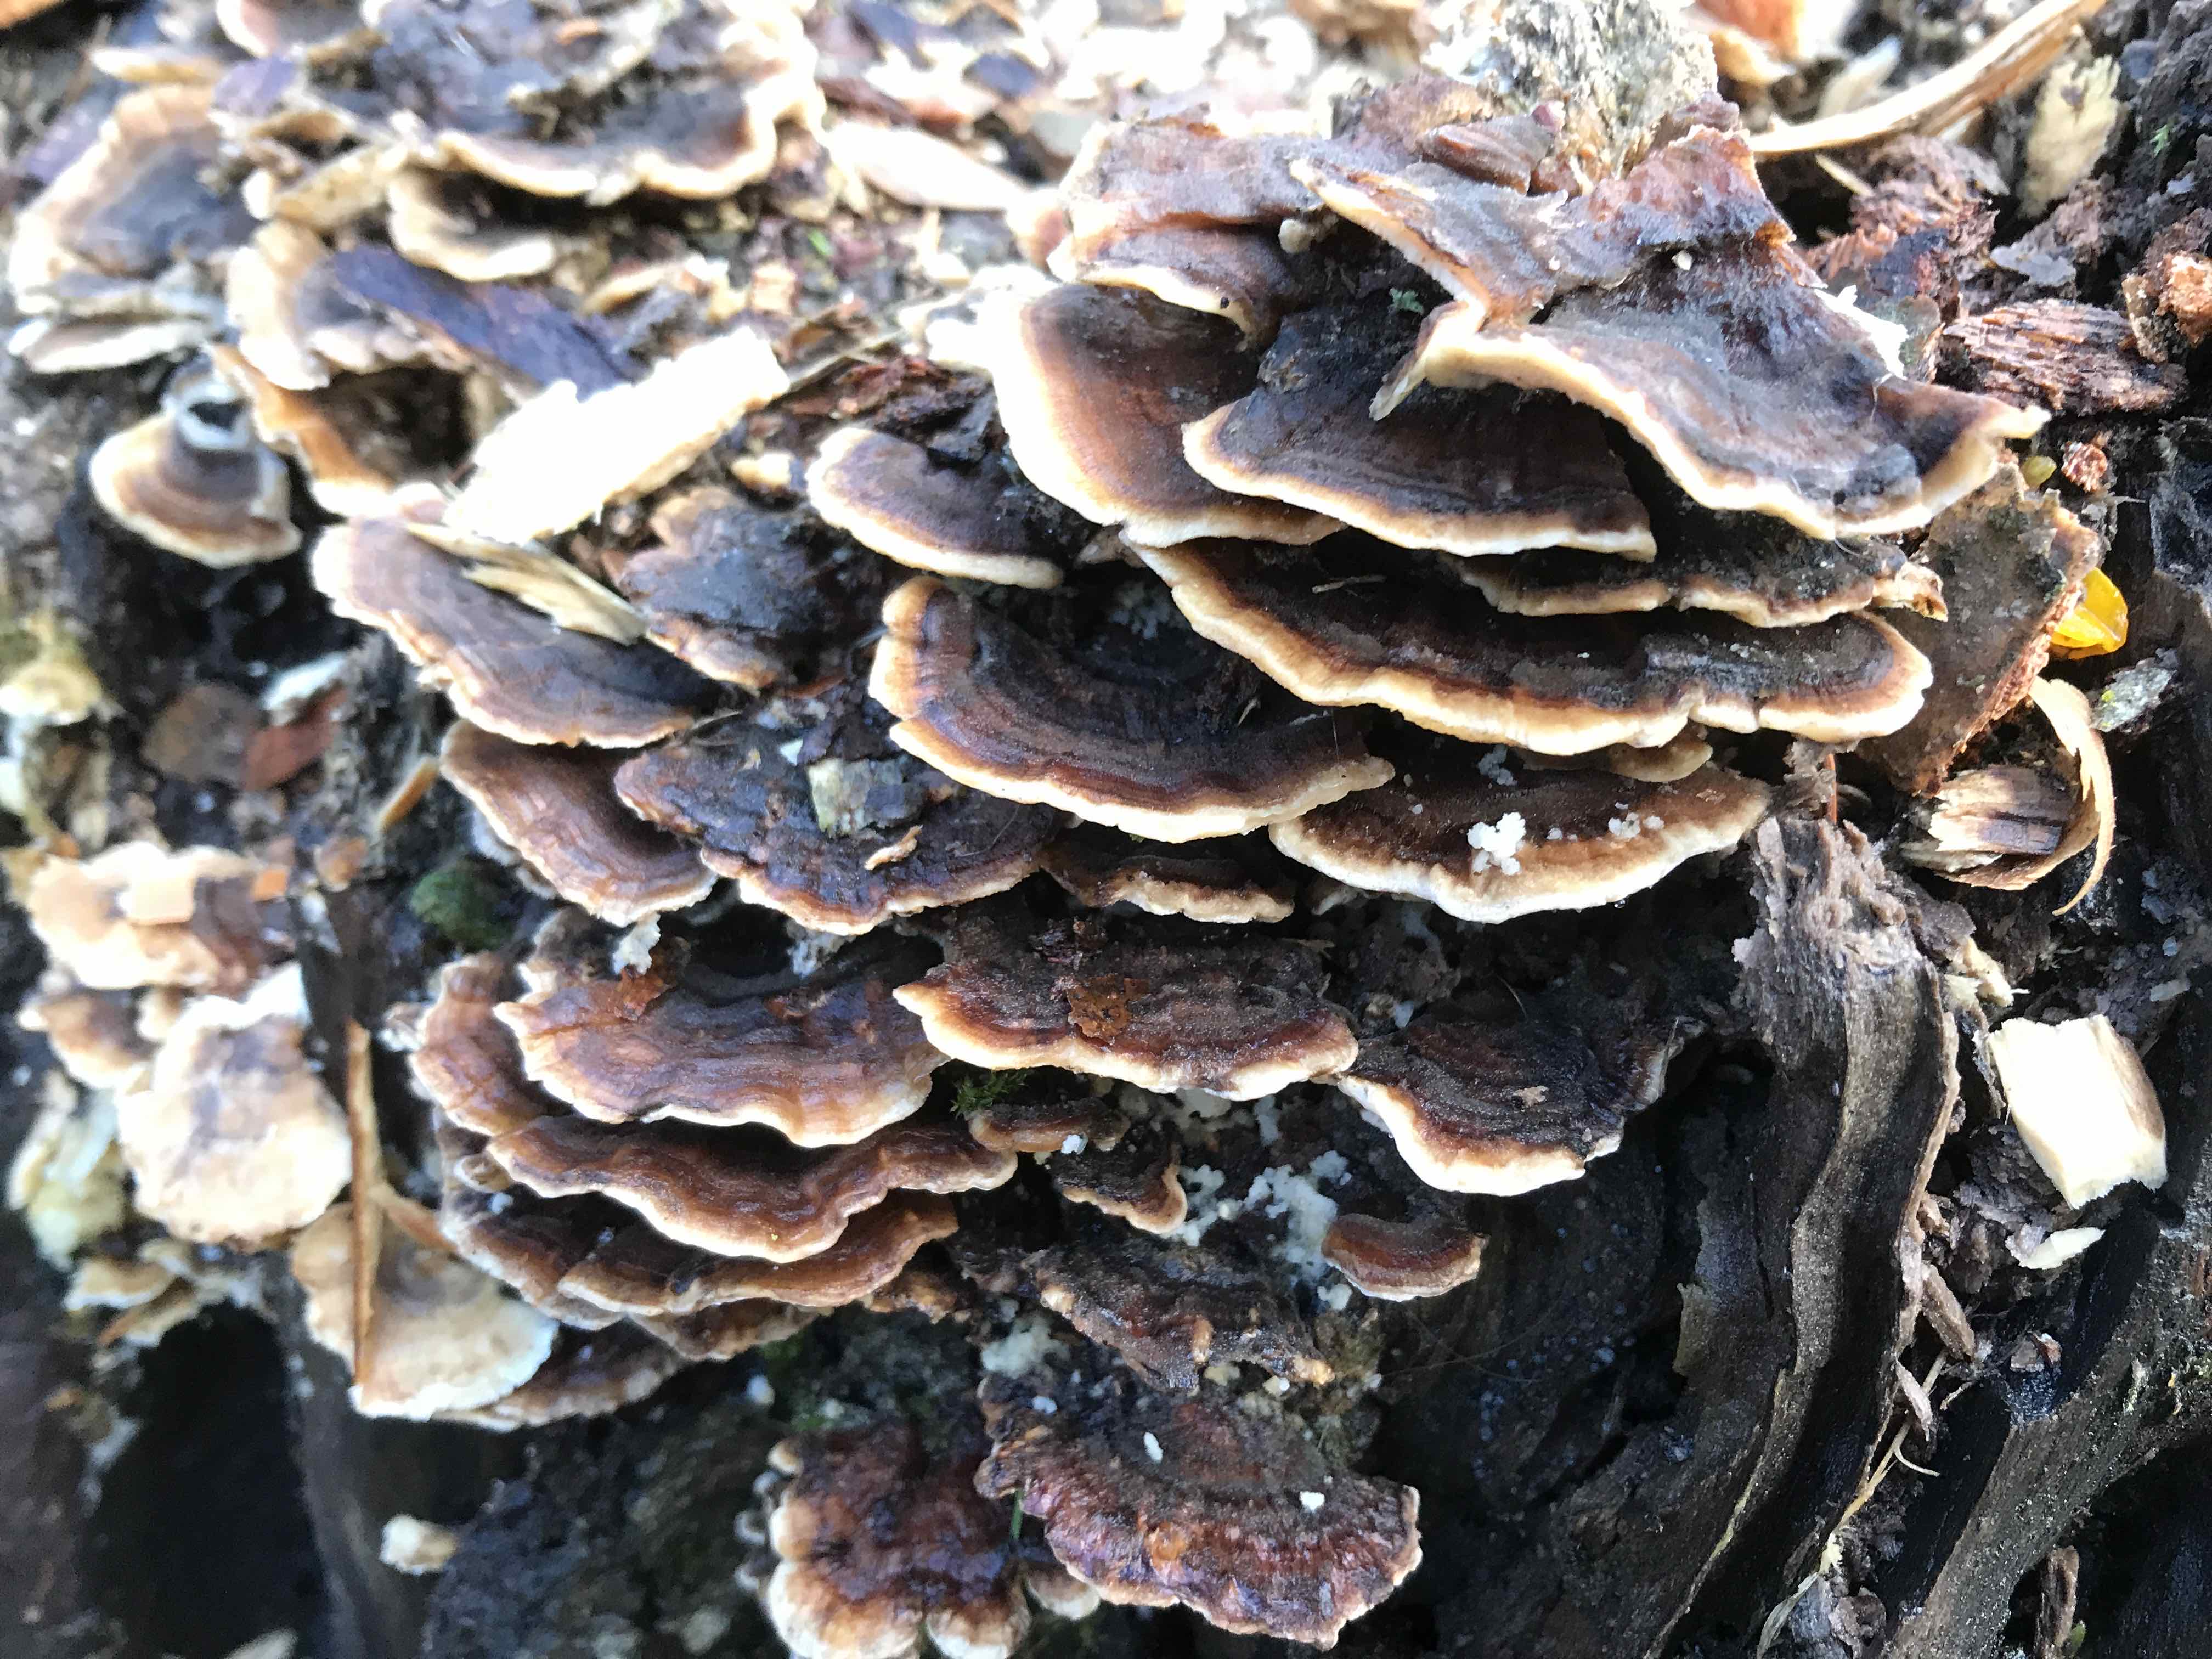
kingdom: Fungi
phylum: Basidiomycota
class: Agaricomycetes
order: Polyporales
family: Polyporaceae
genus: Trametes
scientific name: Trametes versicolor
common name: broget læderporesvamp
